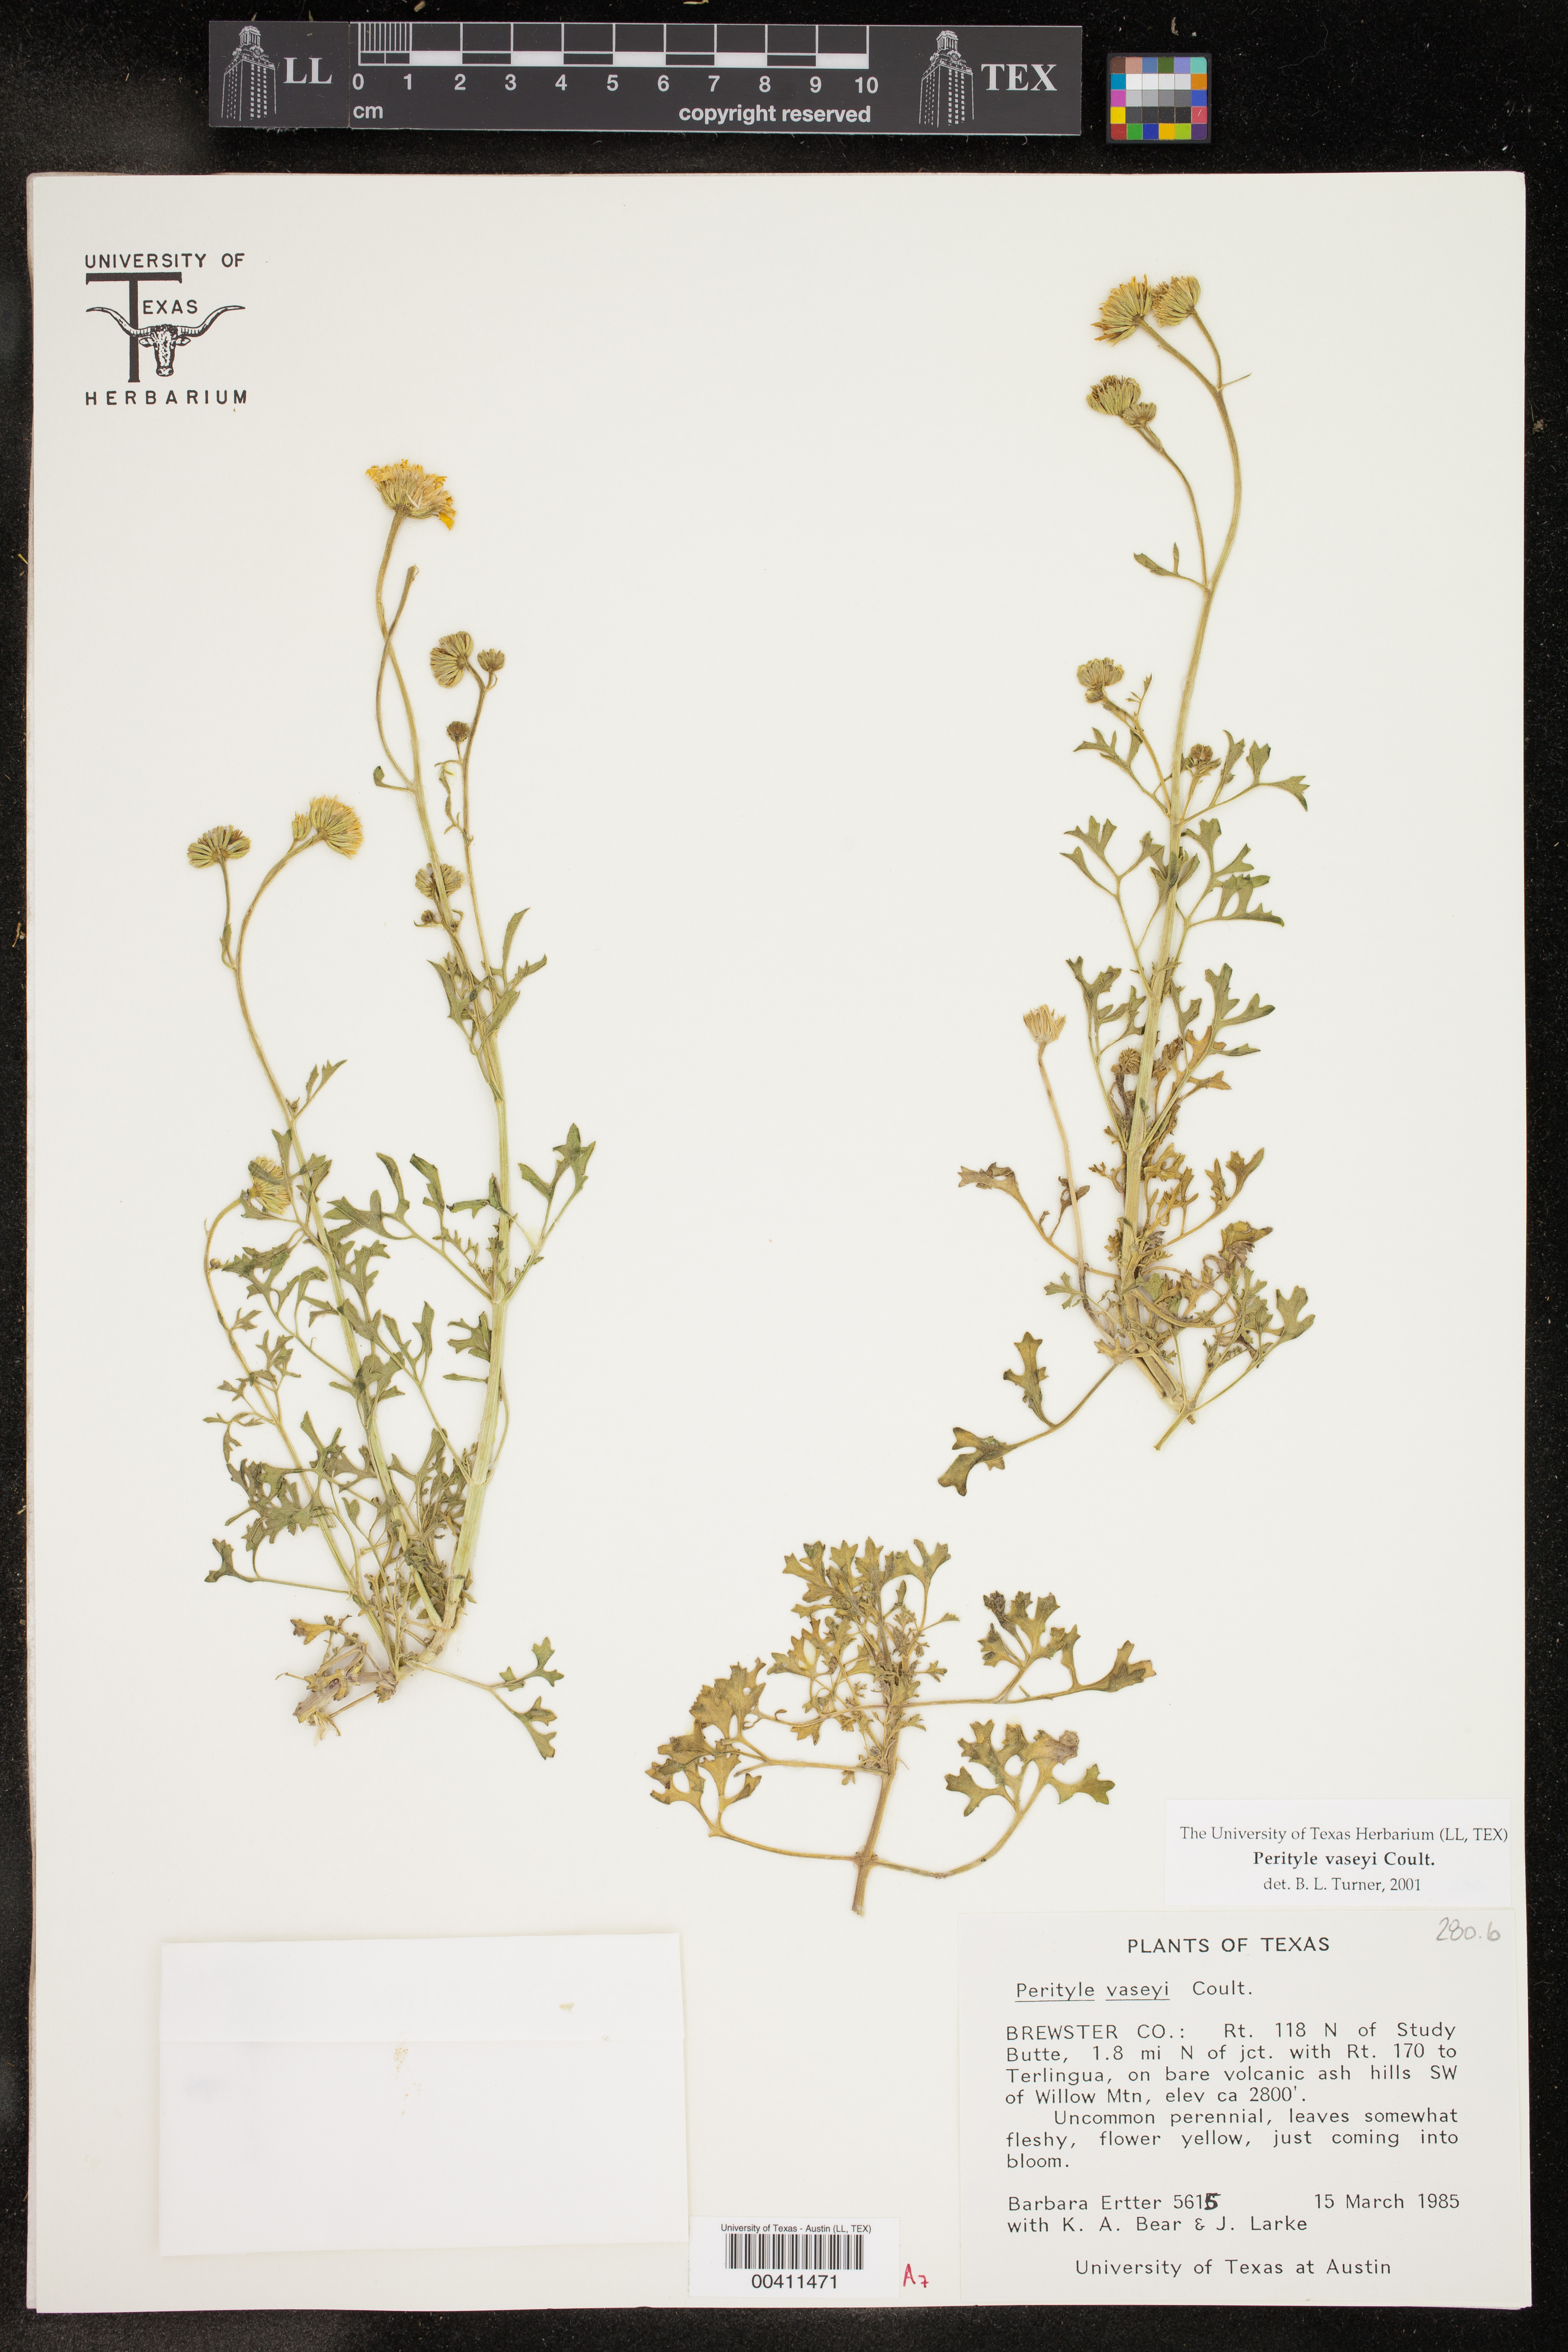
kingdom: Plantae
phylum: Tracheophyta
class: Magnoliopsida
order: Asterales
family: Asteraceae
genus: Laphamia
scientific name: Laphamia vaseyi
